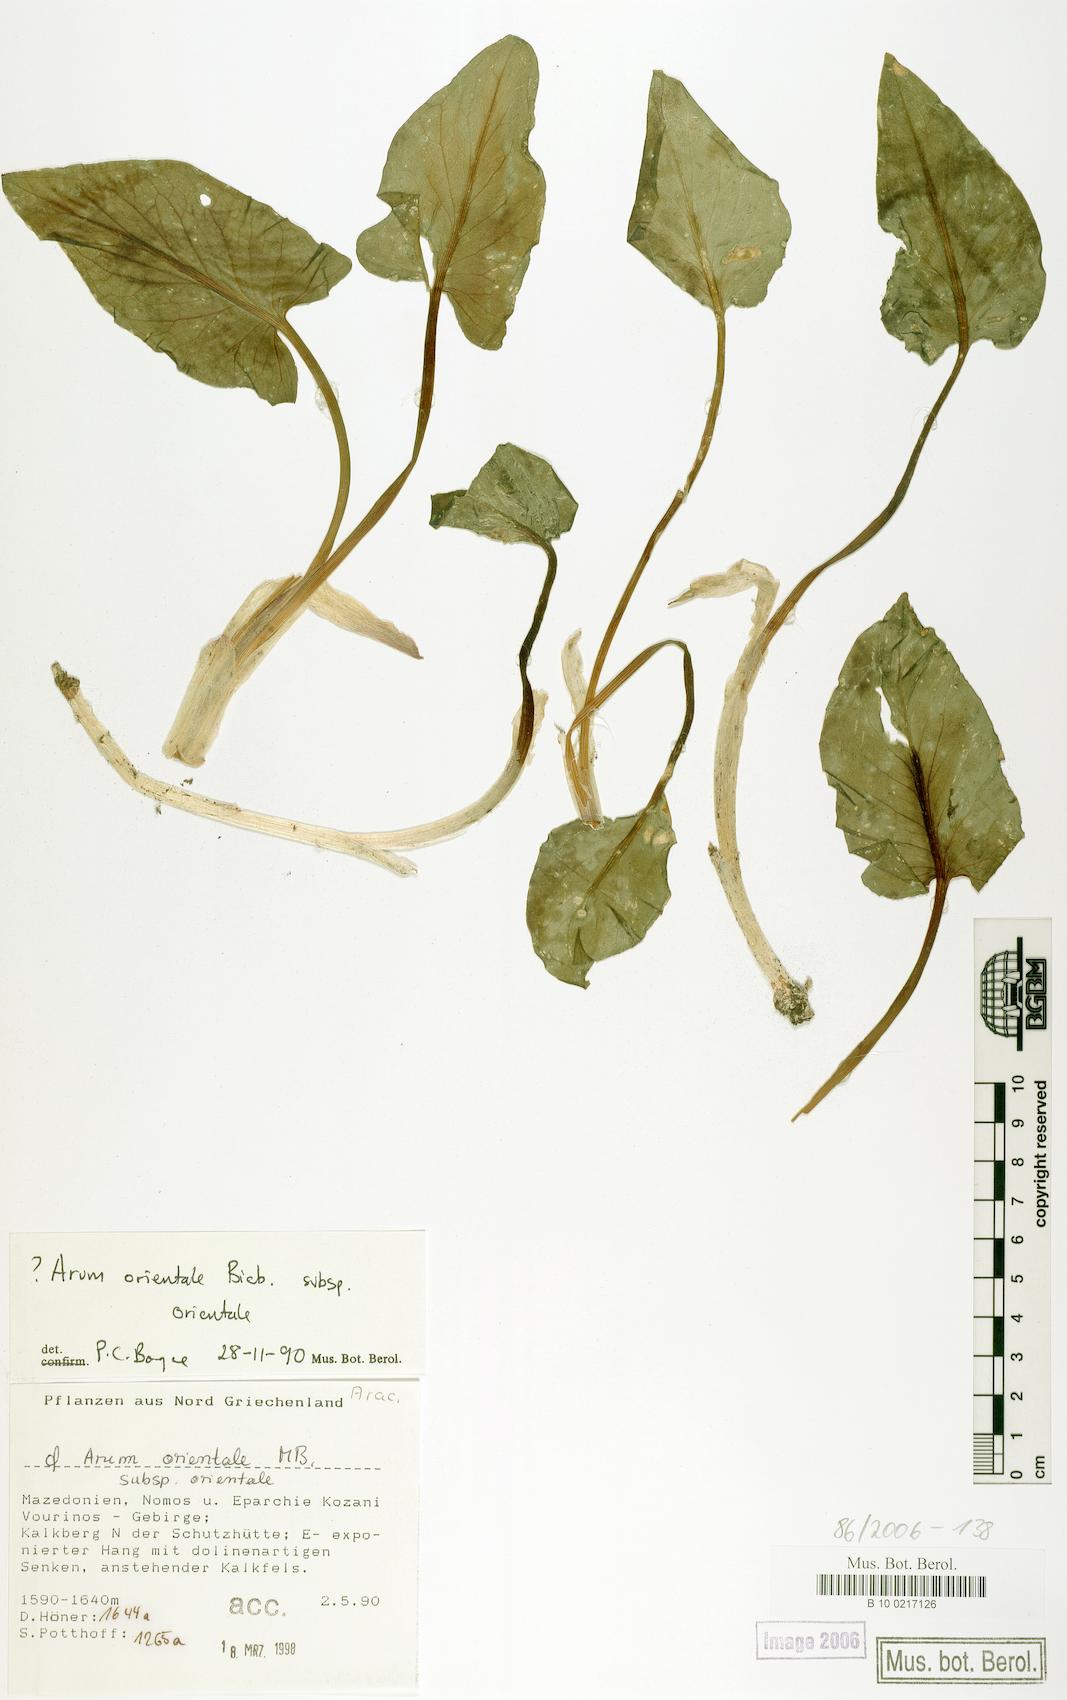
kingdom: Plantae
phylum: Tracheophyta
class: Liliopsida
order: Alismatales
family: Araceae
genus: Arum
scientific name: Arum orientale
